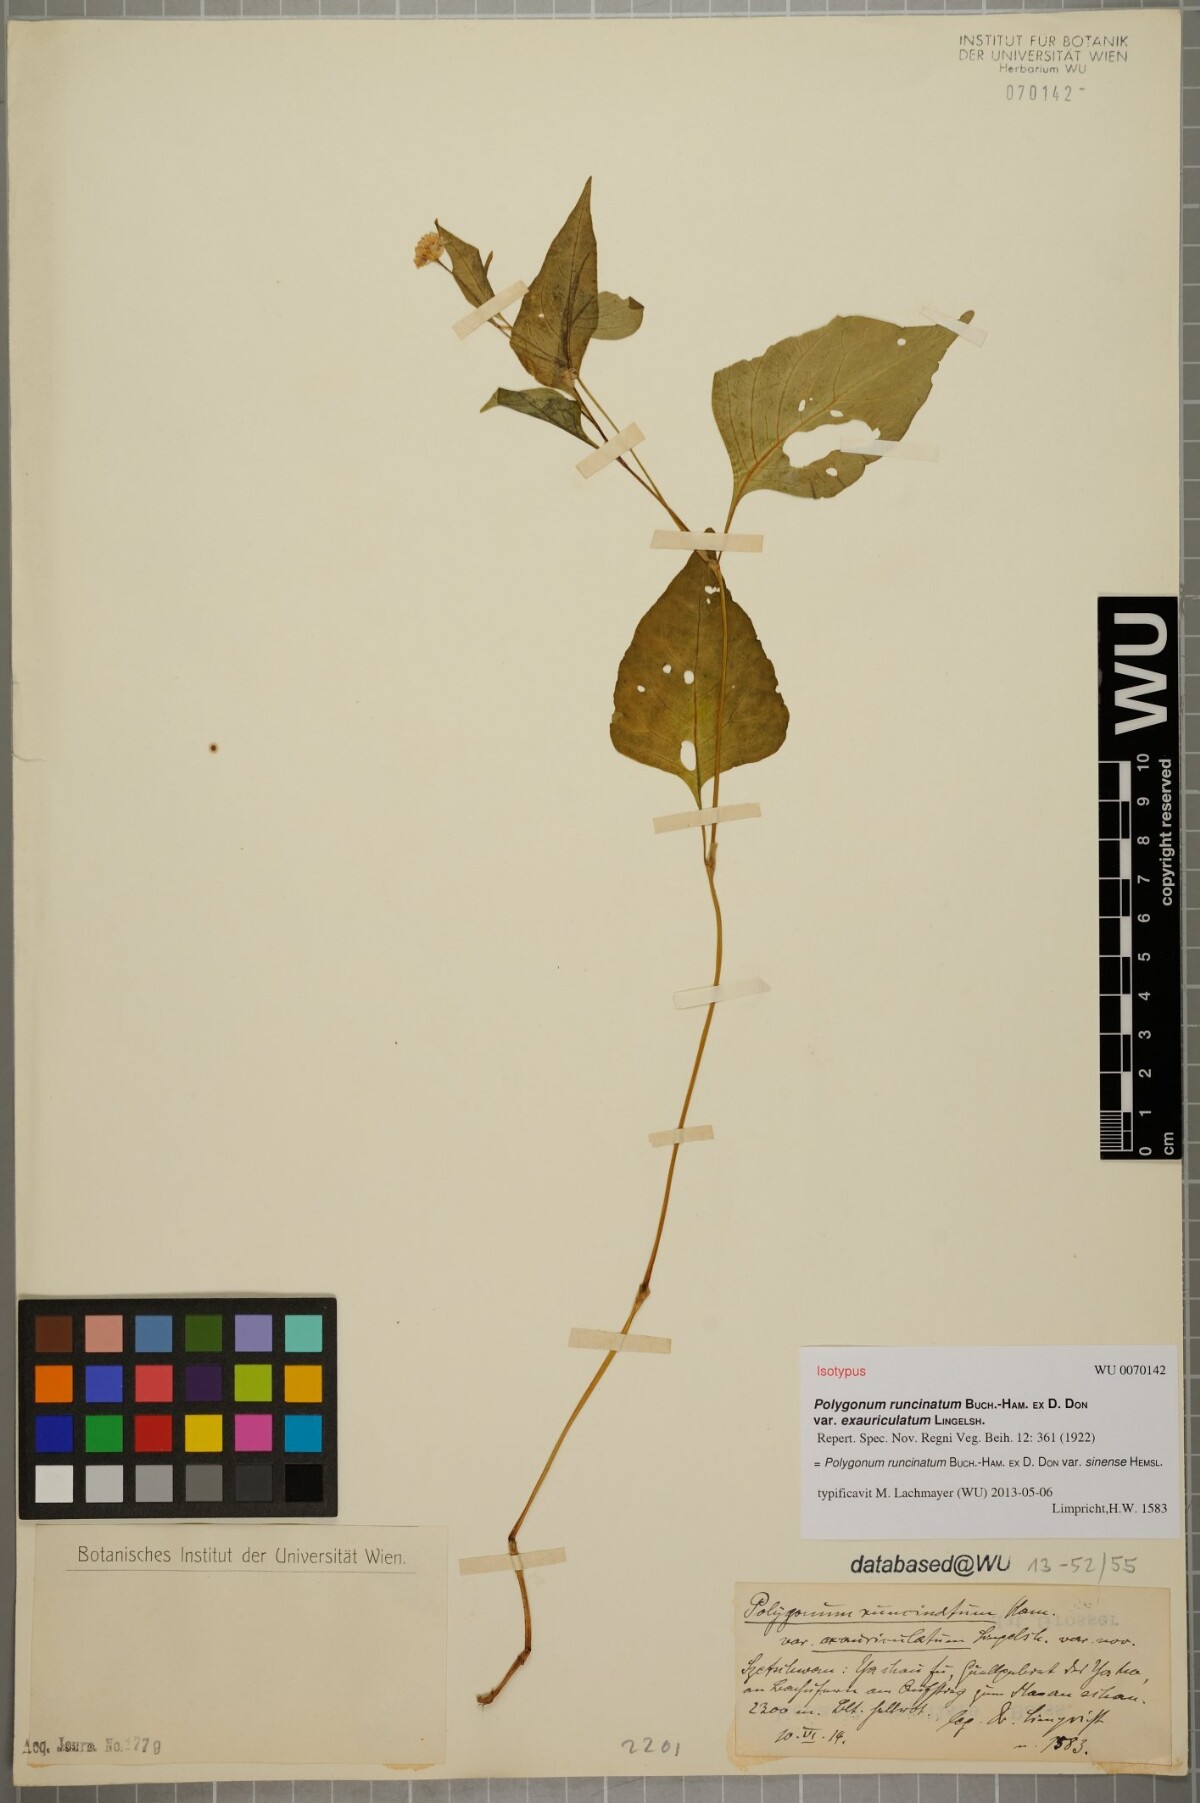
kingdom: Plantae
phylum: Tracheophyta
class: Magnoliopsida
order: Caryophyllales
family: Polygonaceae
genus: Persicaria
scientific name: Persicaria runcinata
